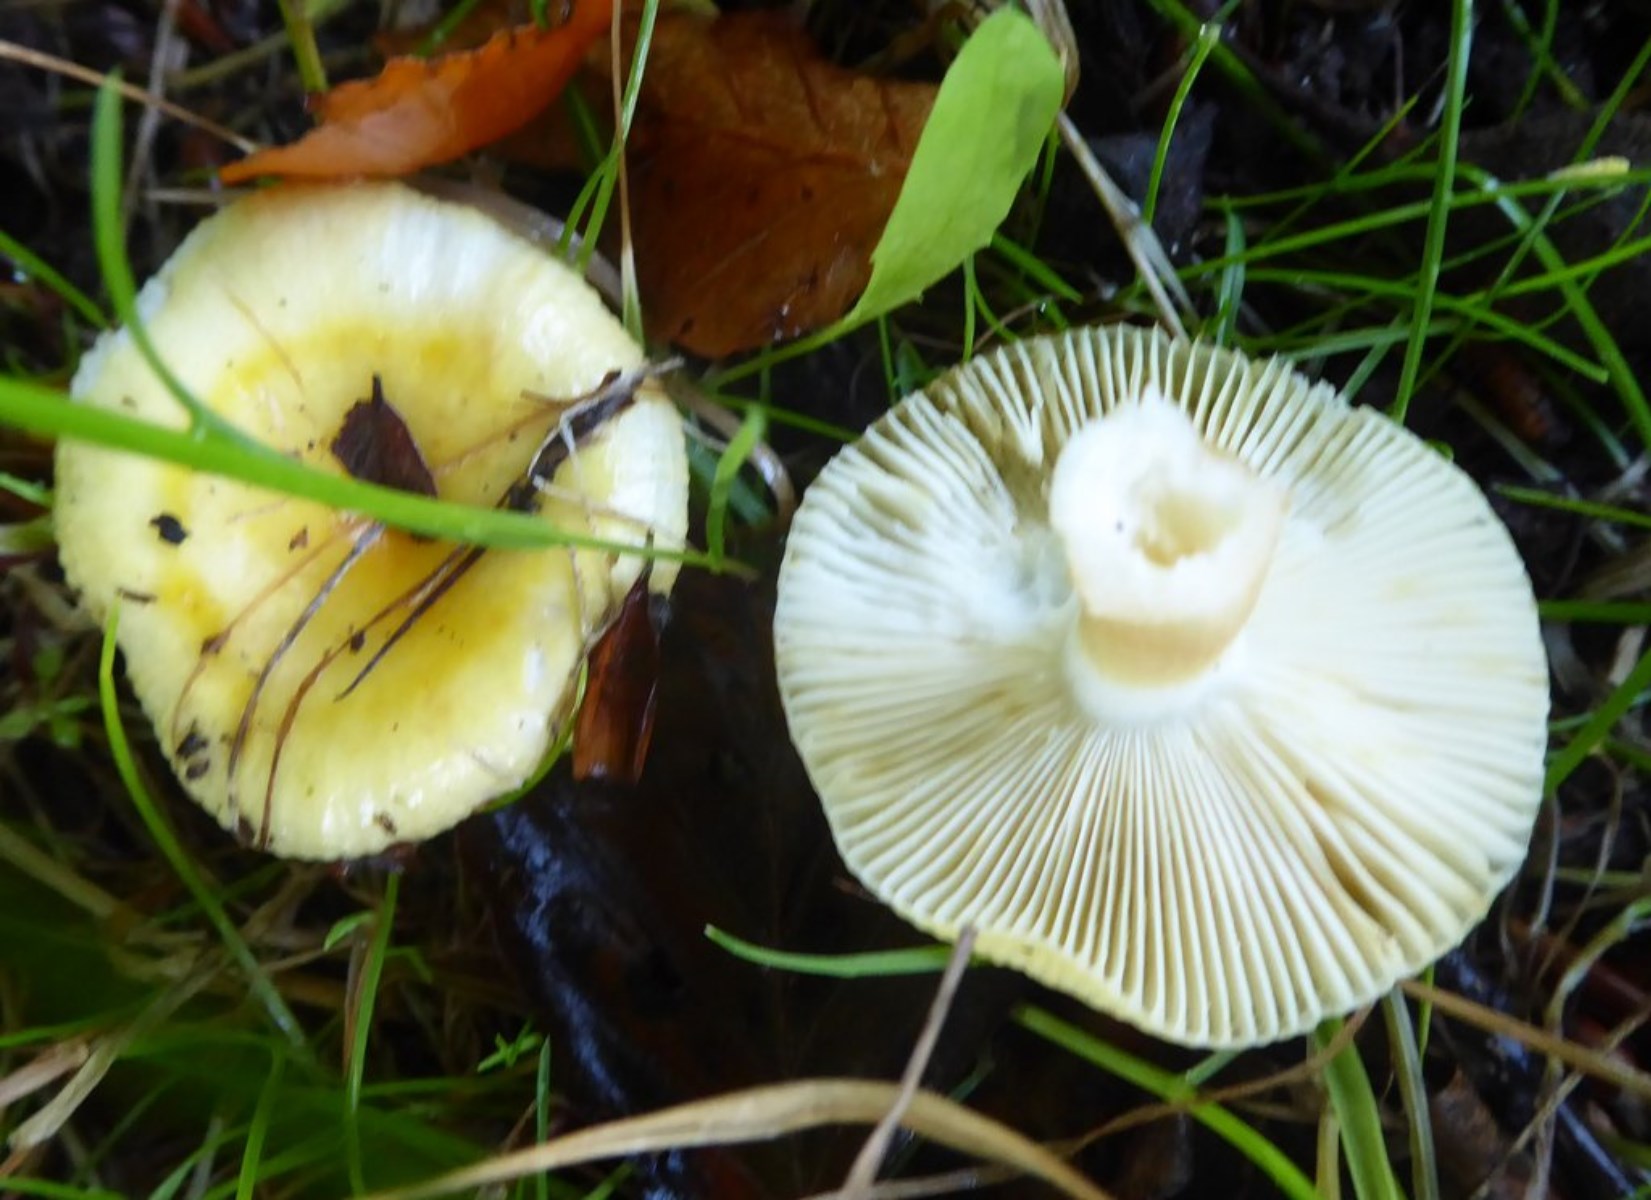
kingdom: Fungi
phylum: Basidiomycota
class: Agaricomycetes
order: Russulales
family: Russulaceae
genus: Russula
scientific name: Russula solaris
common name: sol-skørhat
